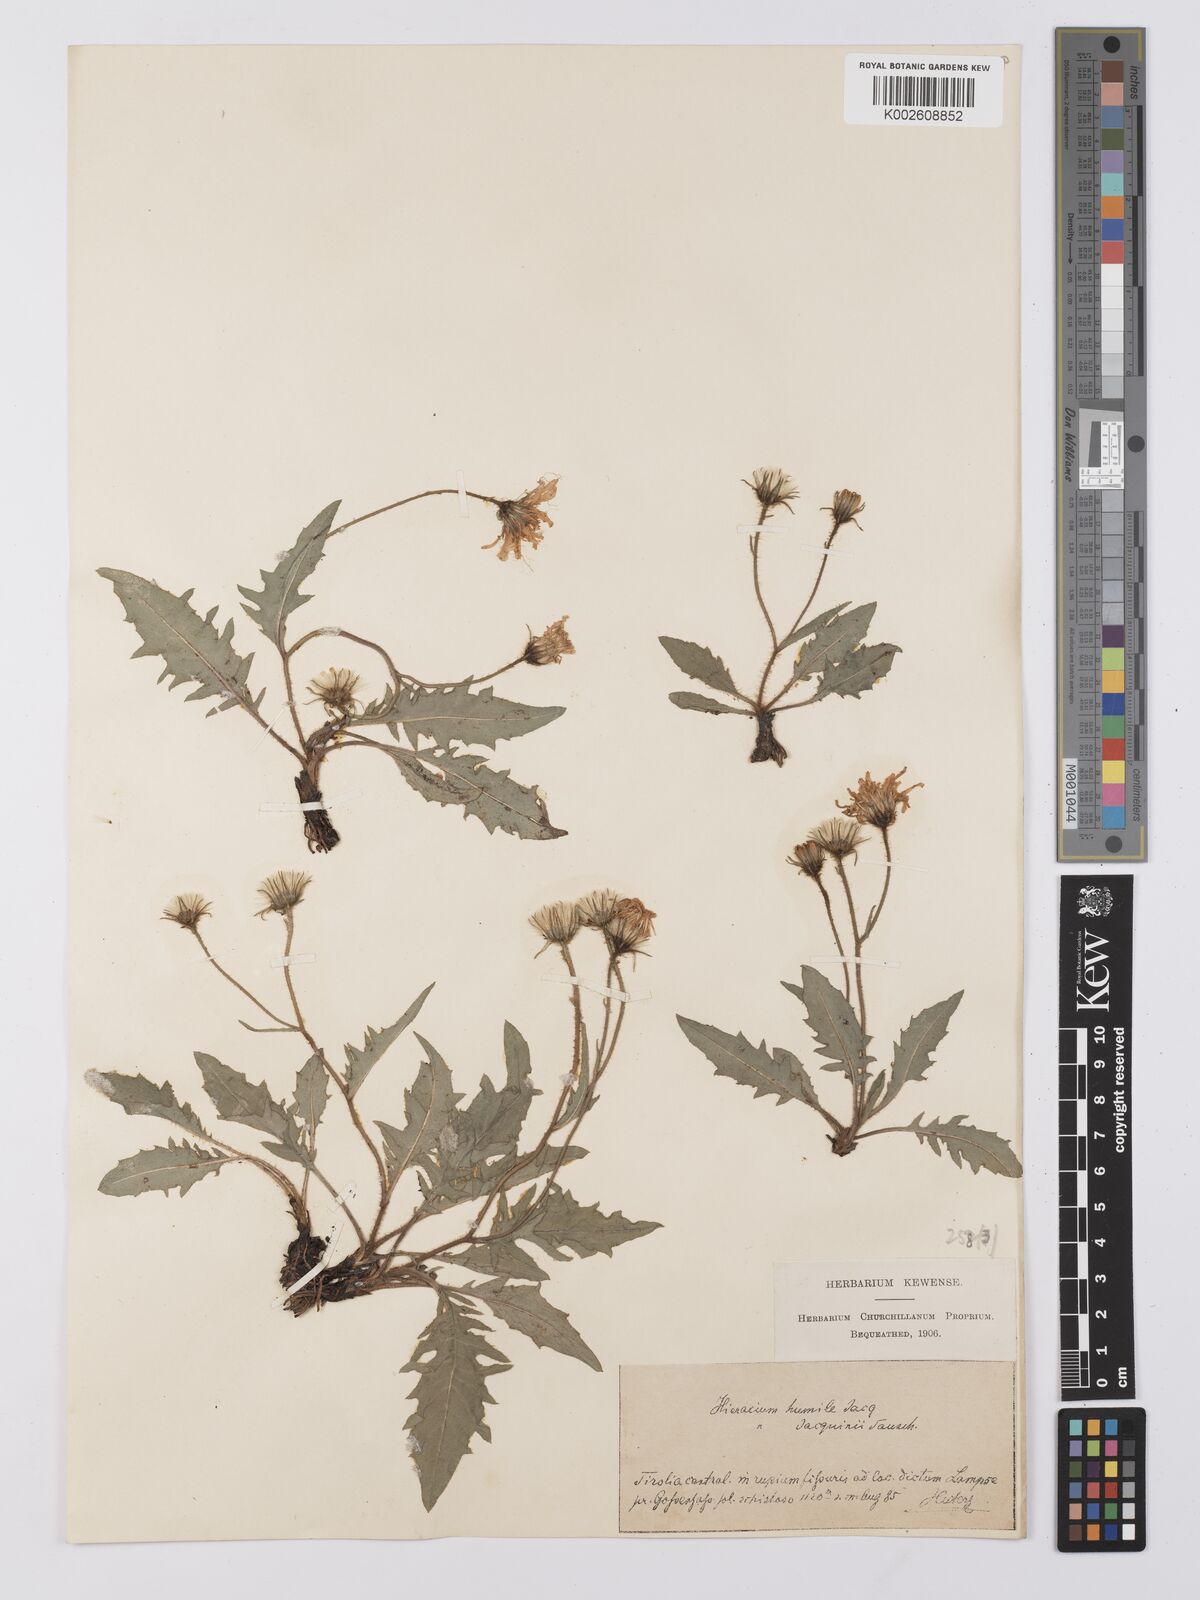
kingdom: Plantae
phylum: Tracheophyta
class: Magnoliopsida
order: Asterales
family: Asteraceae
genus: Hieracium
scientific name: Hieracium valoddae
